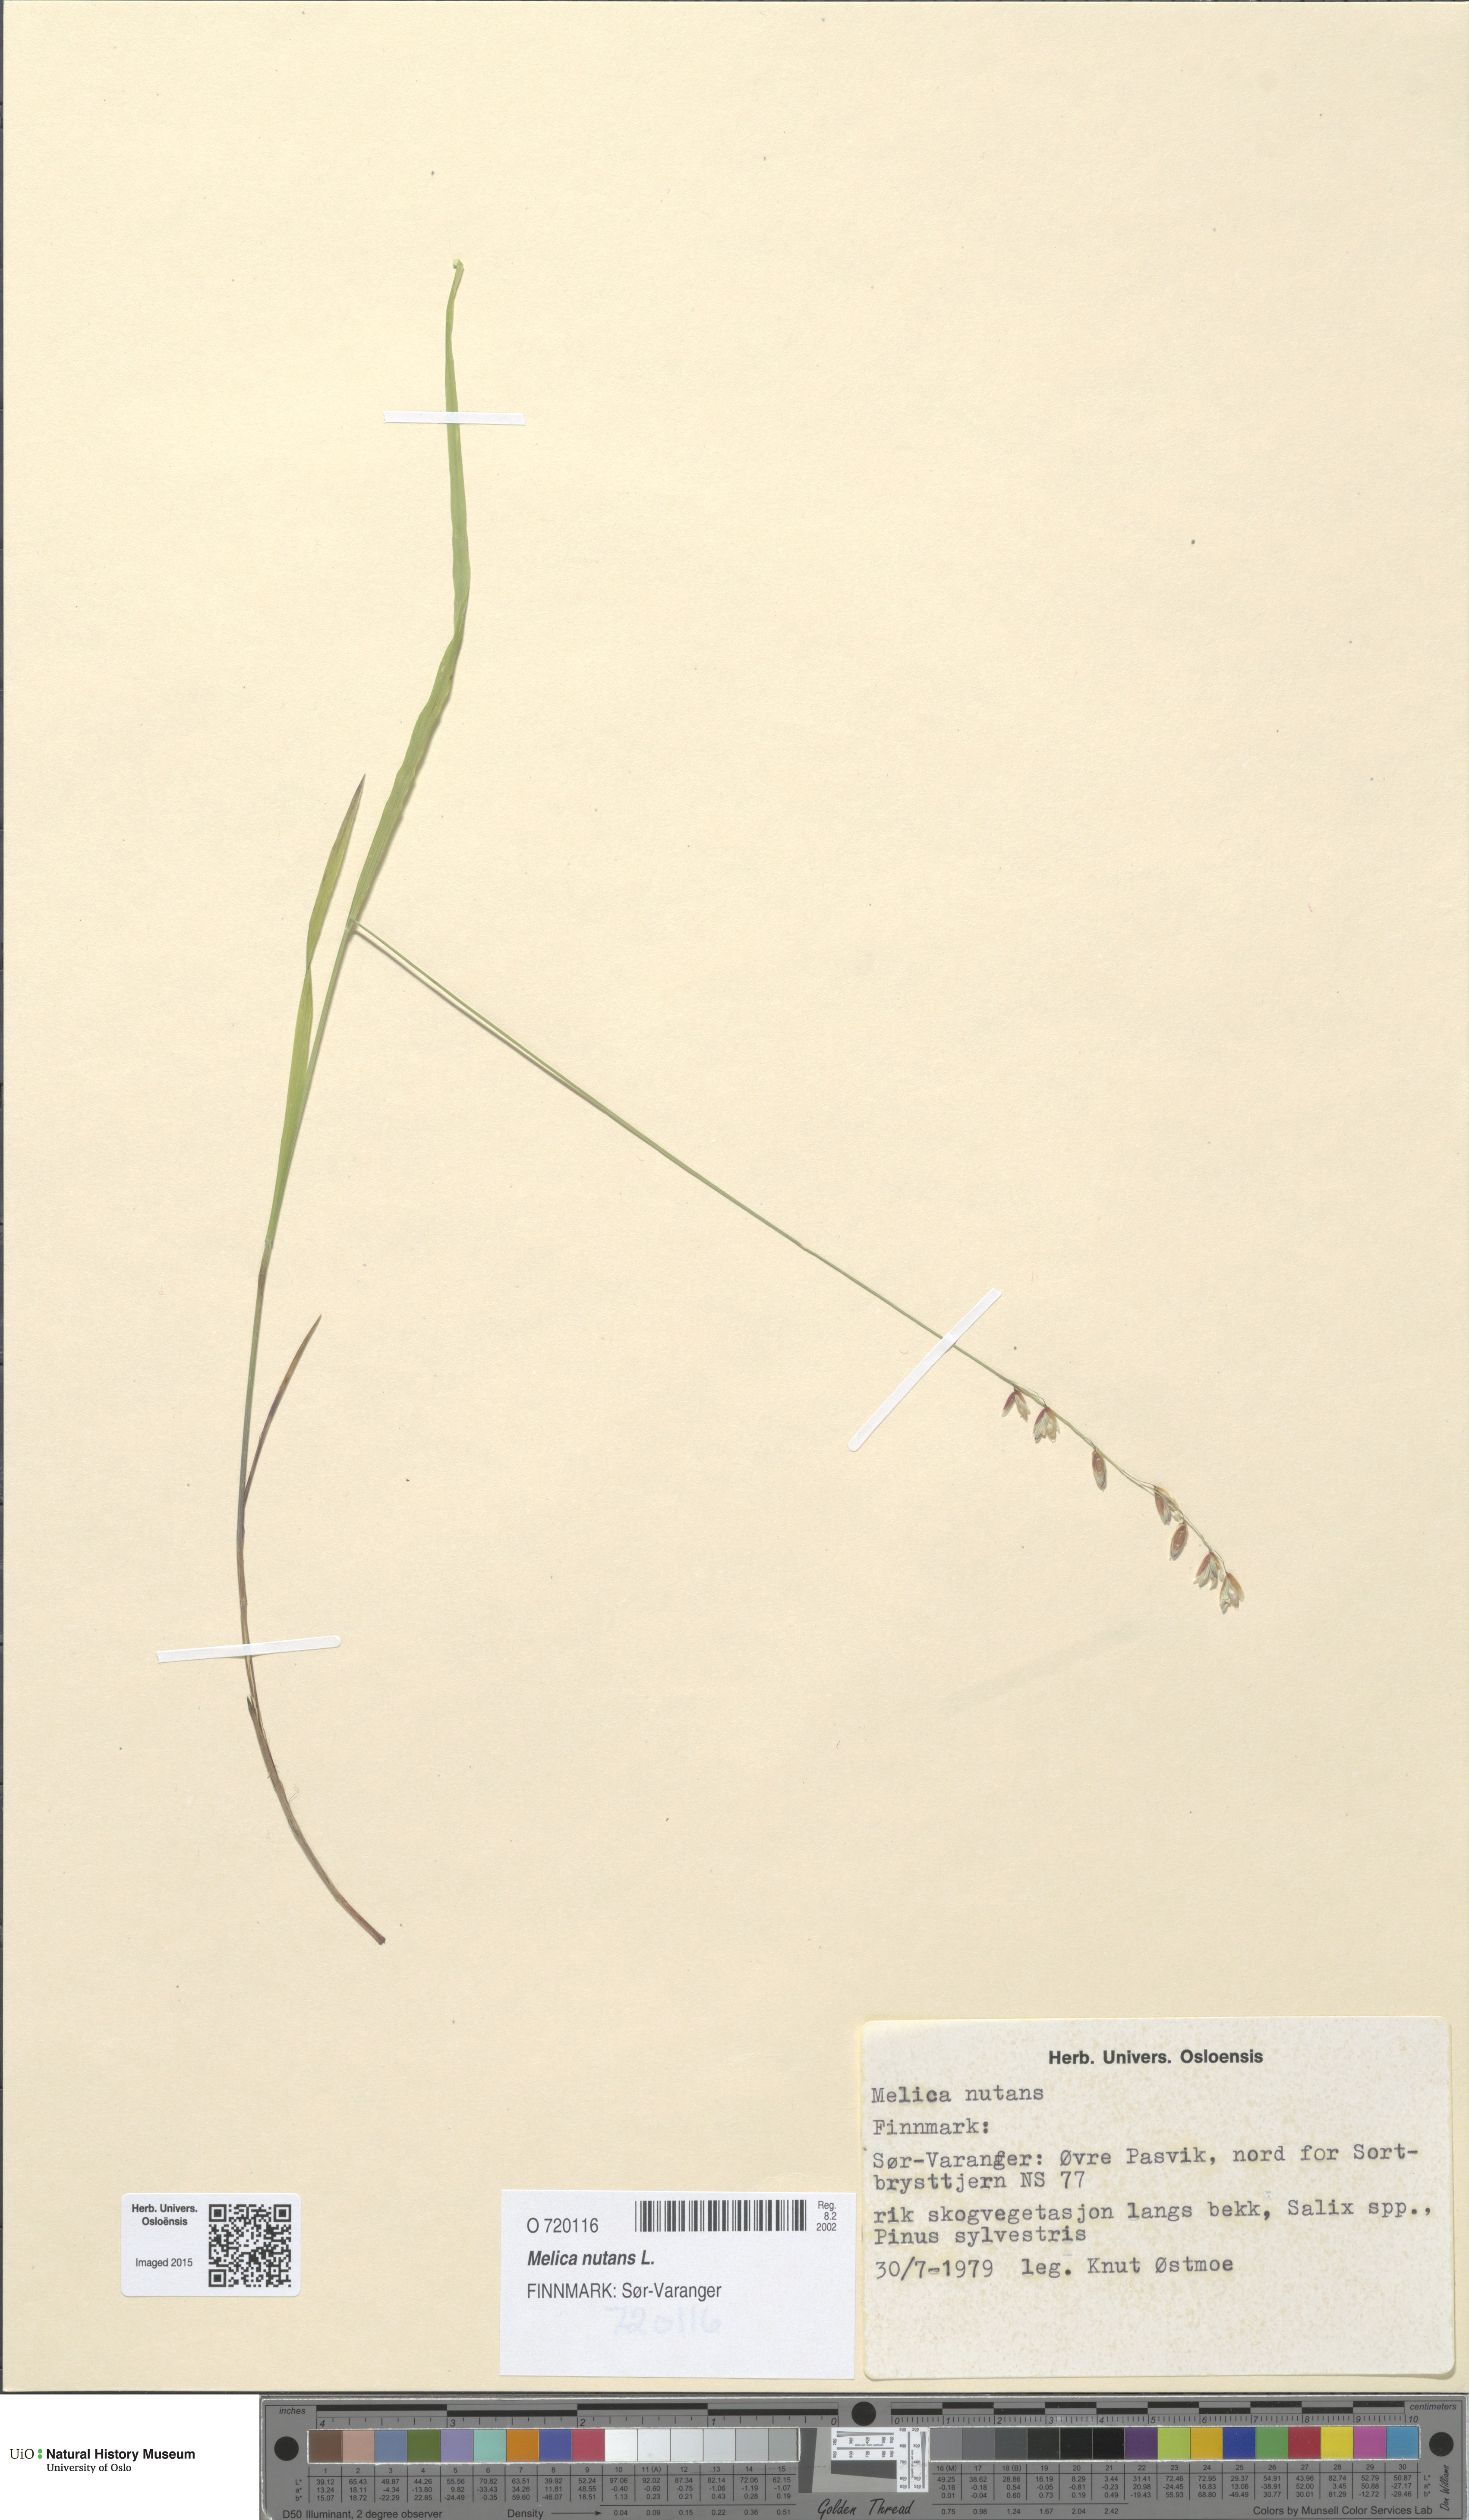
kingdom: Plantae
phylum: Tracheophyta
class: Liliopsida
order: Poales
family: Poaceae
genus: Melica
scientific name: Melica nutans
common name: Mountain melick
